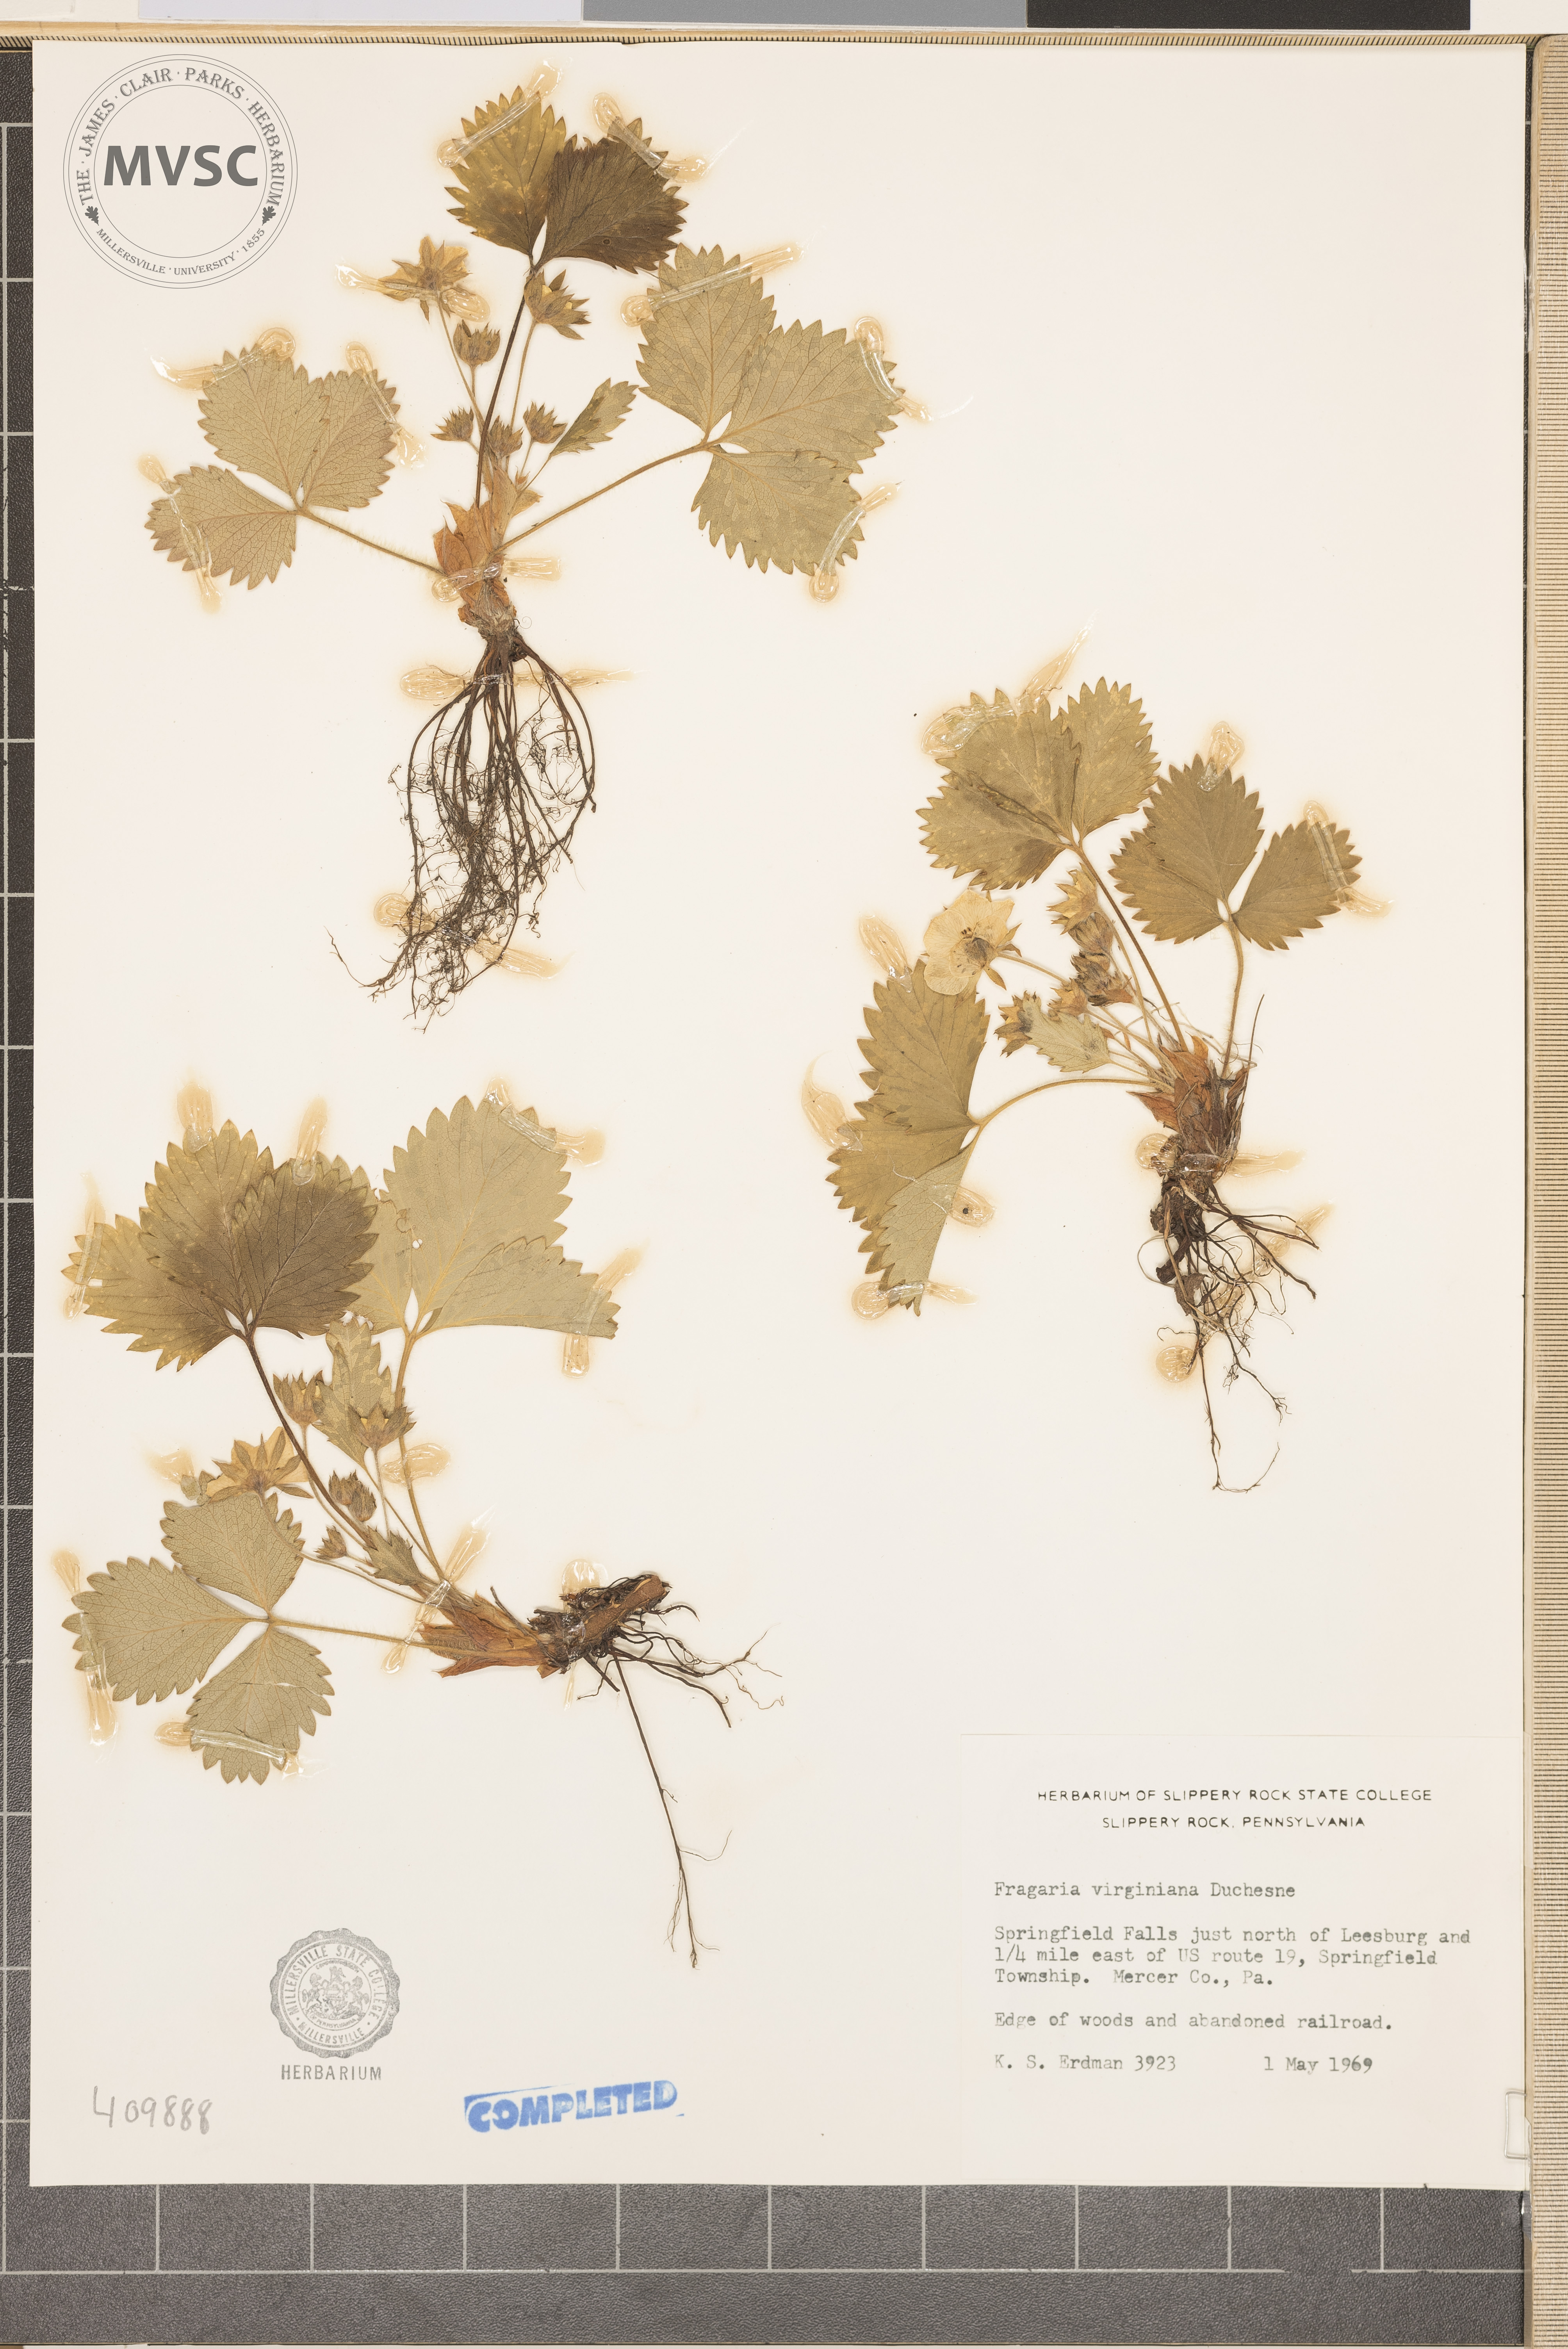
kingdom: Plantae
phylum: Tracheophyta
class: Magnoliopsida
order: Rosales
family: Rosaceae
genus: Fragaria
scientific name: Fragaria virginiana
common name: Thickleaved wild strawberry
